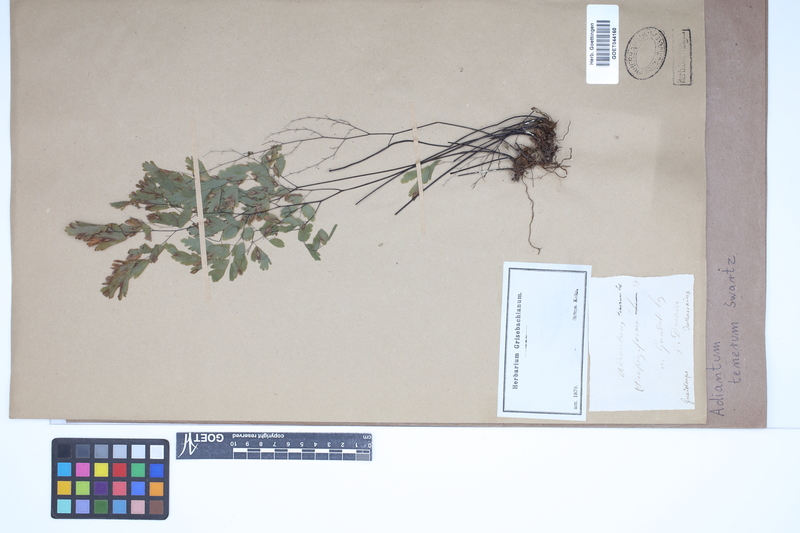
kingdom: Plantae
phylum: Tracheophyta
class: Polypodiopsida
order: Polypodiales
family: Pteridaceae
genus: Adiantum
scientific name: Adiantum tenerum
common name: Fan maidenhair
